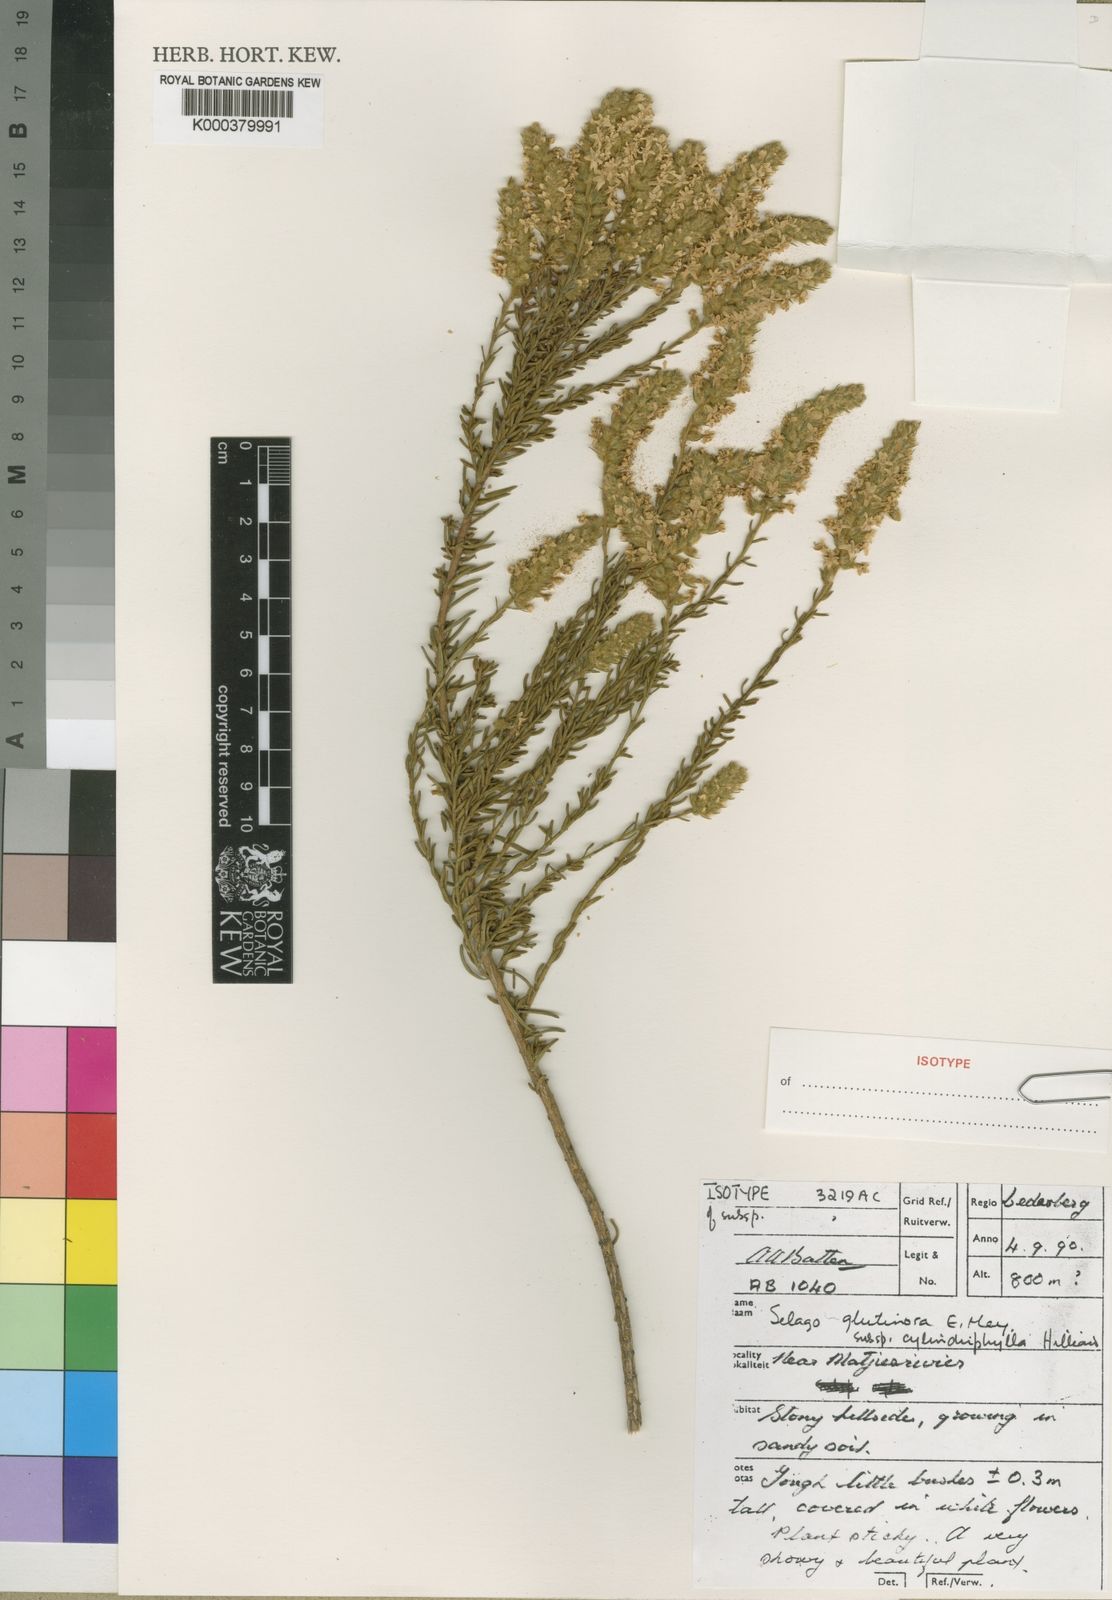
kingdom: Plantae
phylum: Tracheophyta
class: Magnoliopsida
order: Lamiales
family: Scrophulariaceae
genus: Selago
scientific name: Selago glutinosa
